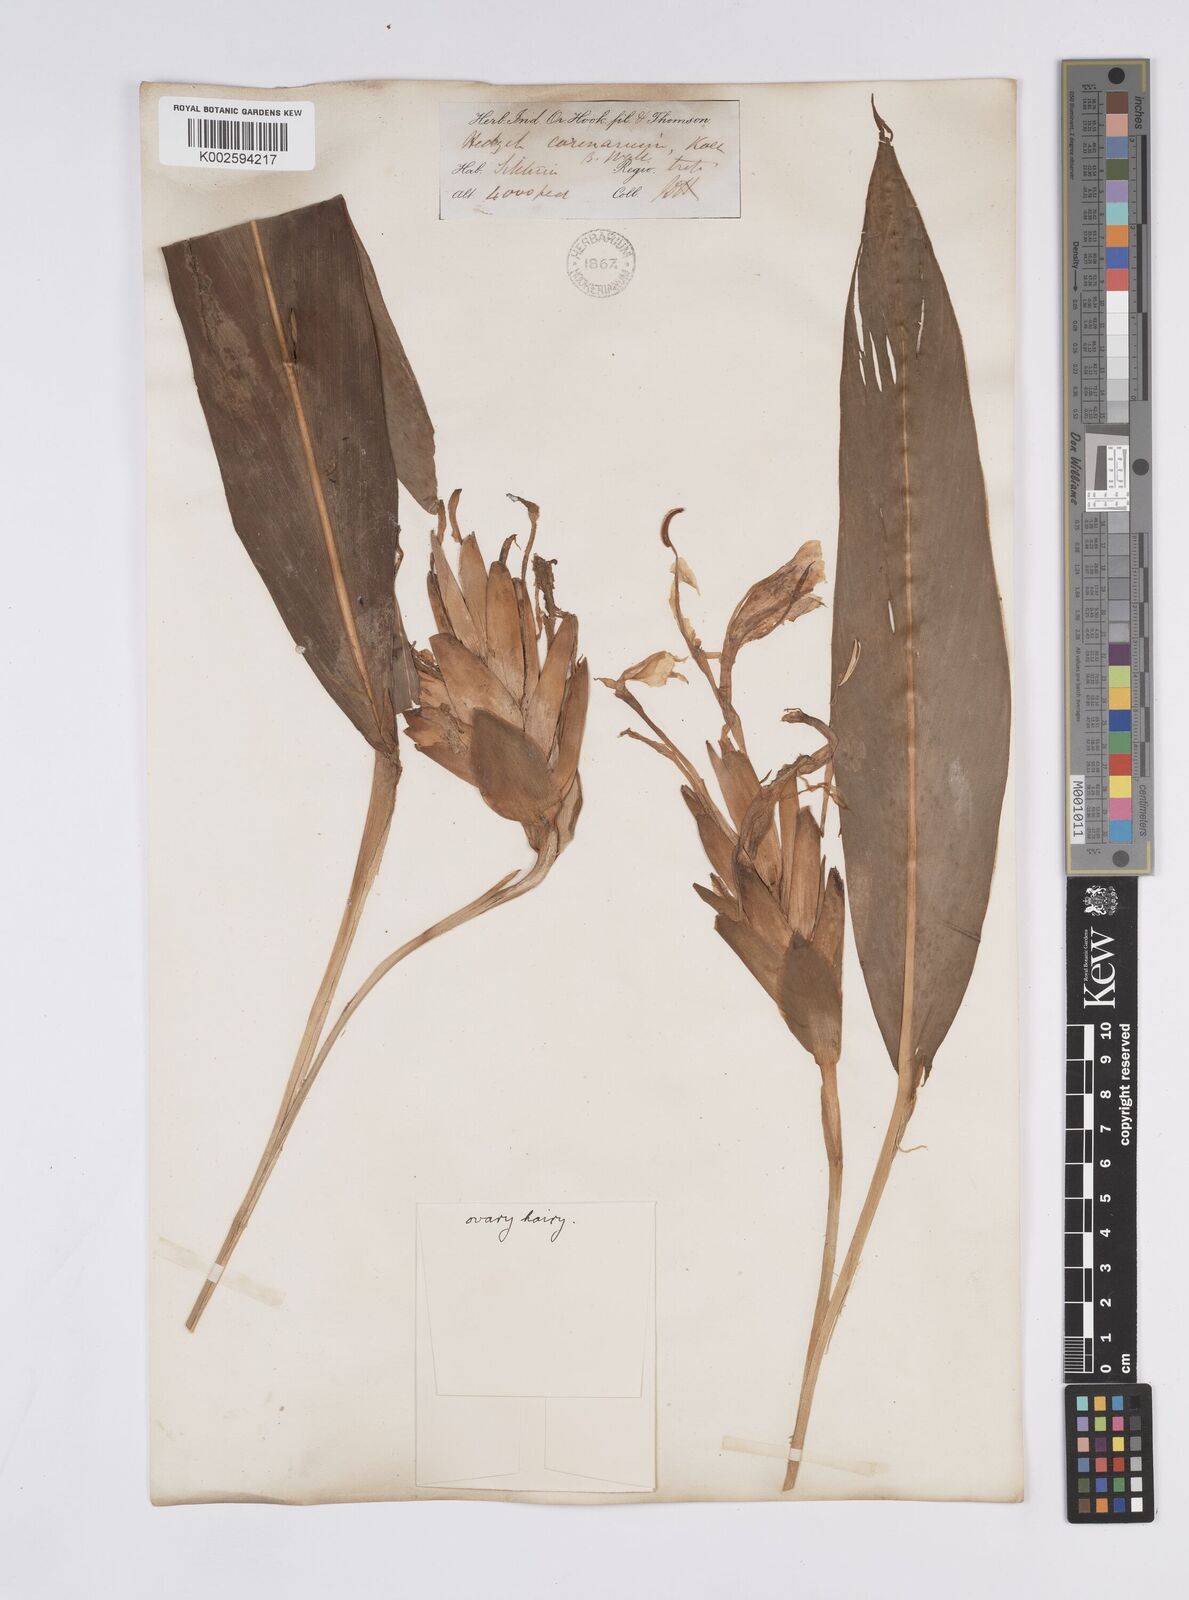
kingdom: Plantae
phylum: Tracheophyta
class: Liliopsida
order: Zingiberales
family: Zingiberaceae
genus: Hedychium
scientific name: Hedychium coronarium
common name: White garland-lily
